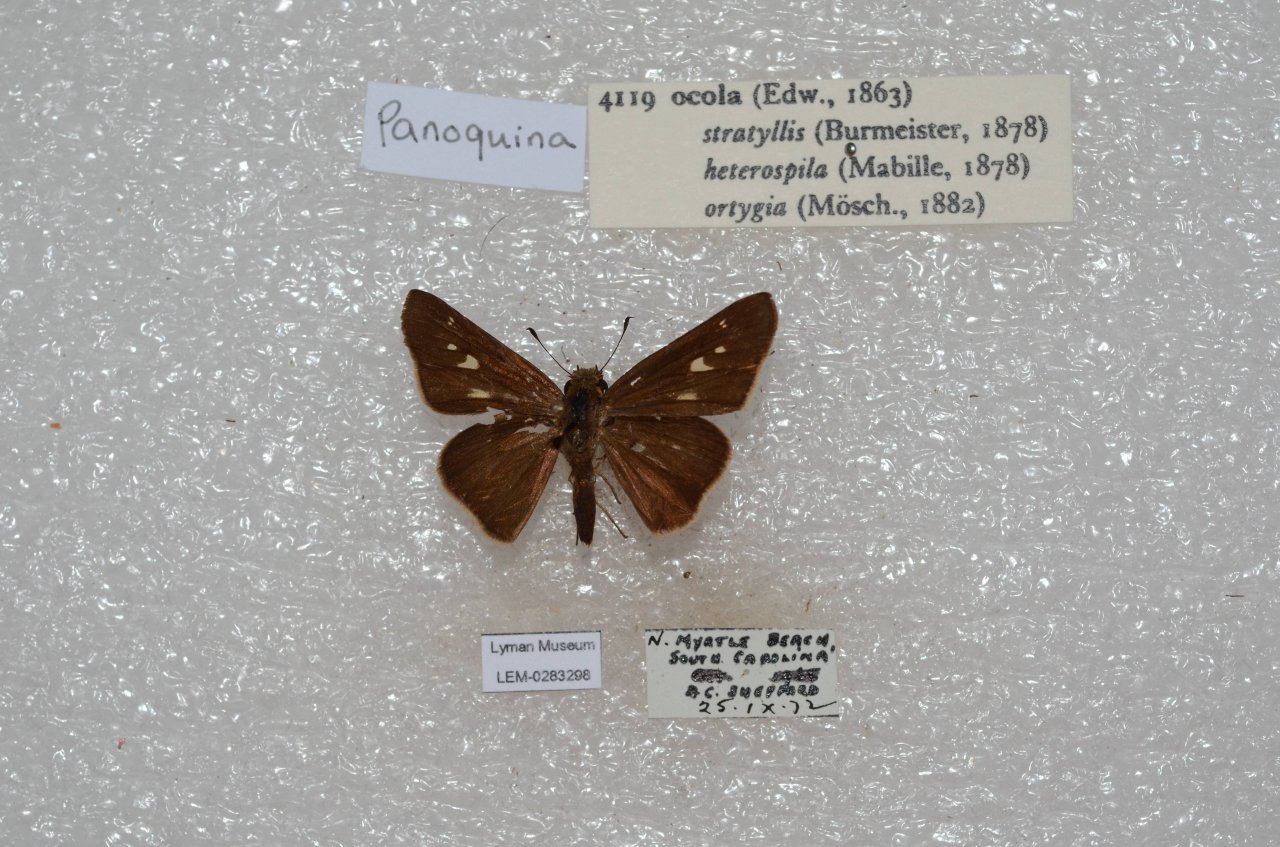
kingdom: Animalia
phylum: Arthropoda
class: Insecta
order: Lepidoptera
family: Hesperiidae
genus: Panoquina
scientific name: Panoquina ocola
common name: Ocola Skipper
